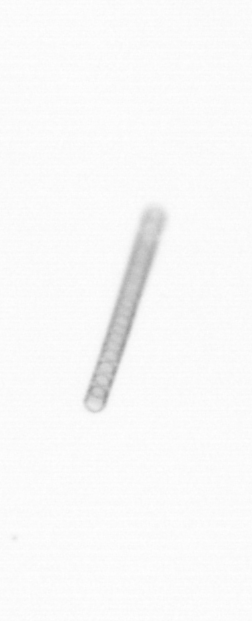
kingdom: Chromista
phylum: Ochrophyta
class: Bacillariophyceae
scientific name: Bacillariophyceae
